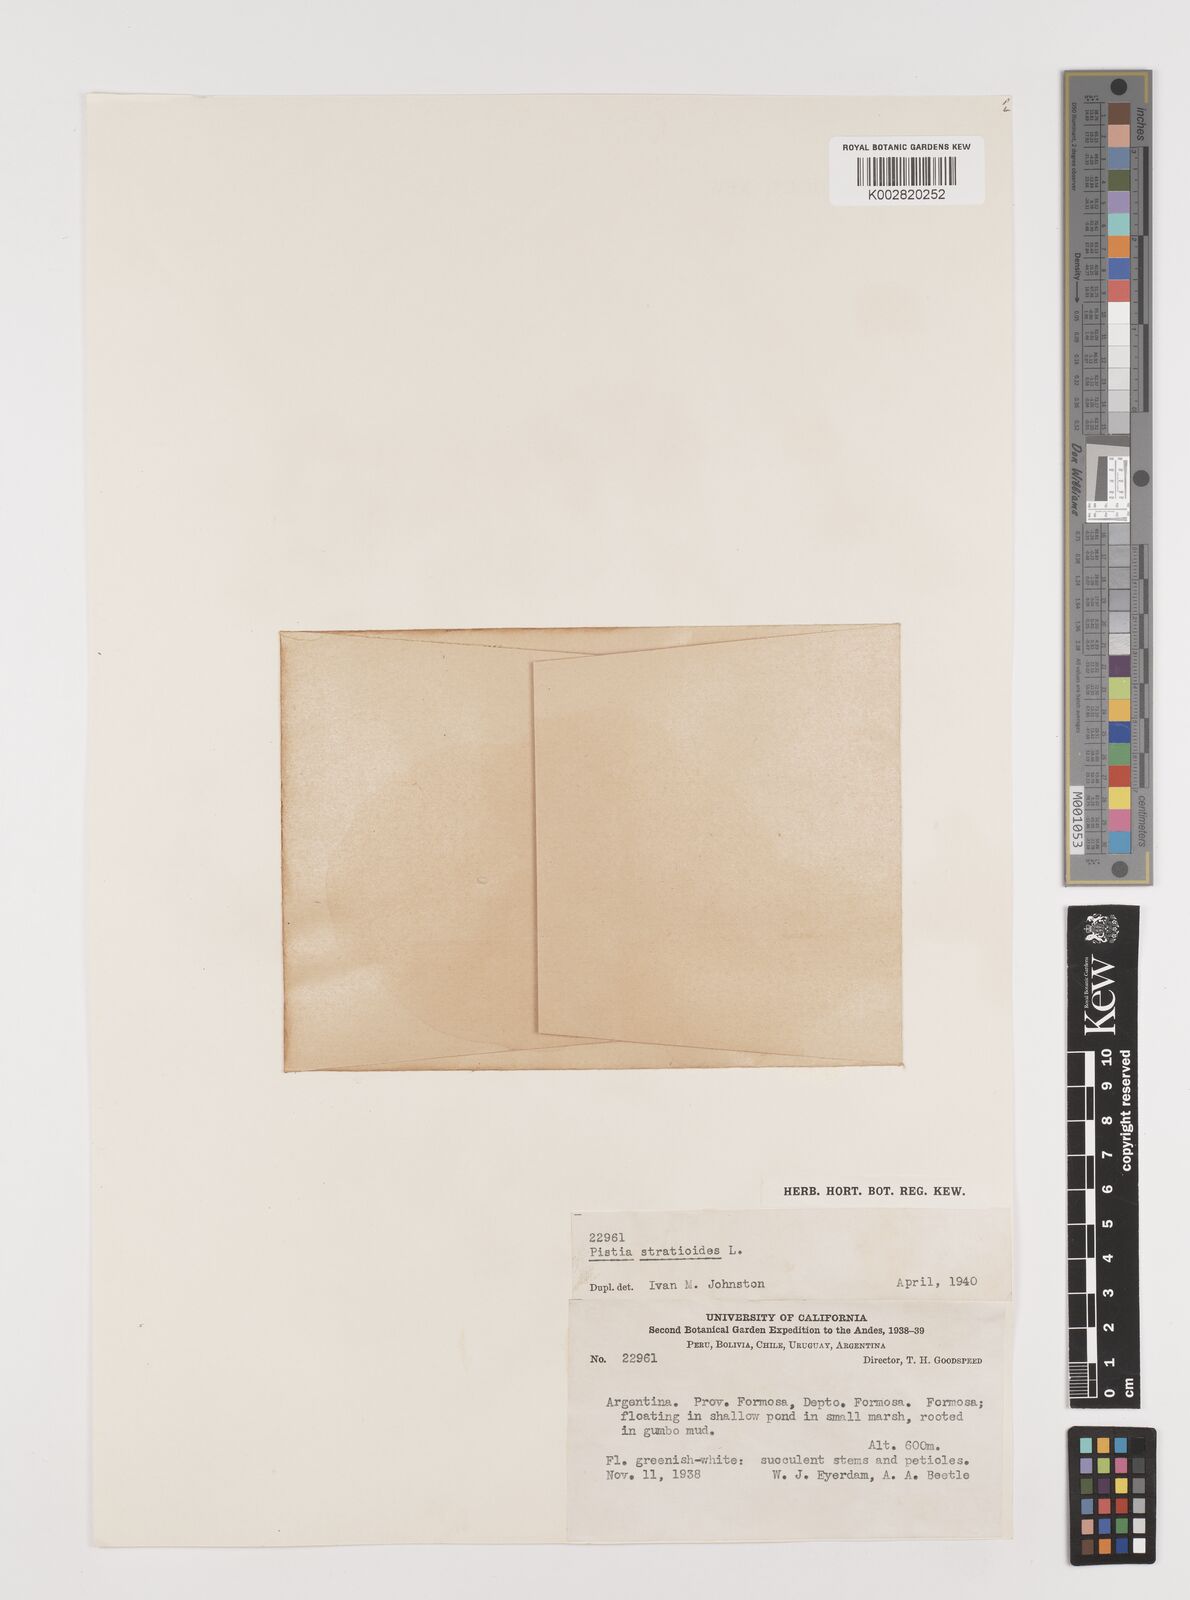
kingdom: Plantae
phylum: Tracheophyta
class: Liliopsida
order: Alismatales
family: Araceae
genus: Pistia
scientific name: Pistia stratiotes
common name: Water lettuce
